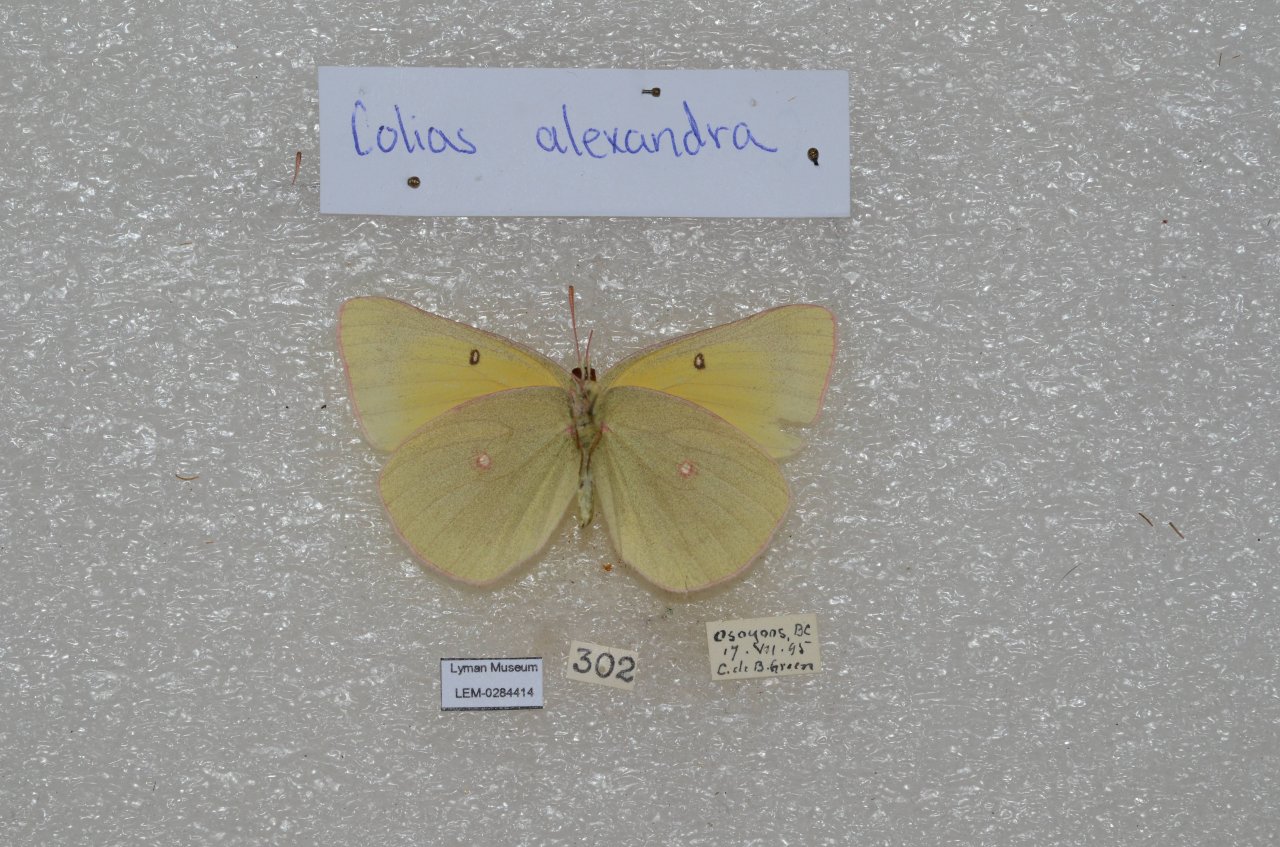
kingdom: Animalia
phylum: Arthropoda
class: Insecta
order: Lepidoptera
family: Pieridae
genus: Colias
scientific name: Colias alexandra
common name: Queen Alexandra's Sulphur
